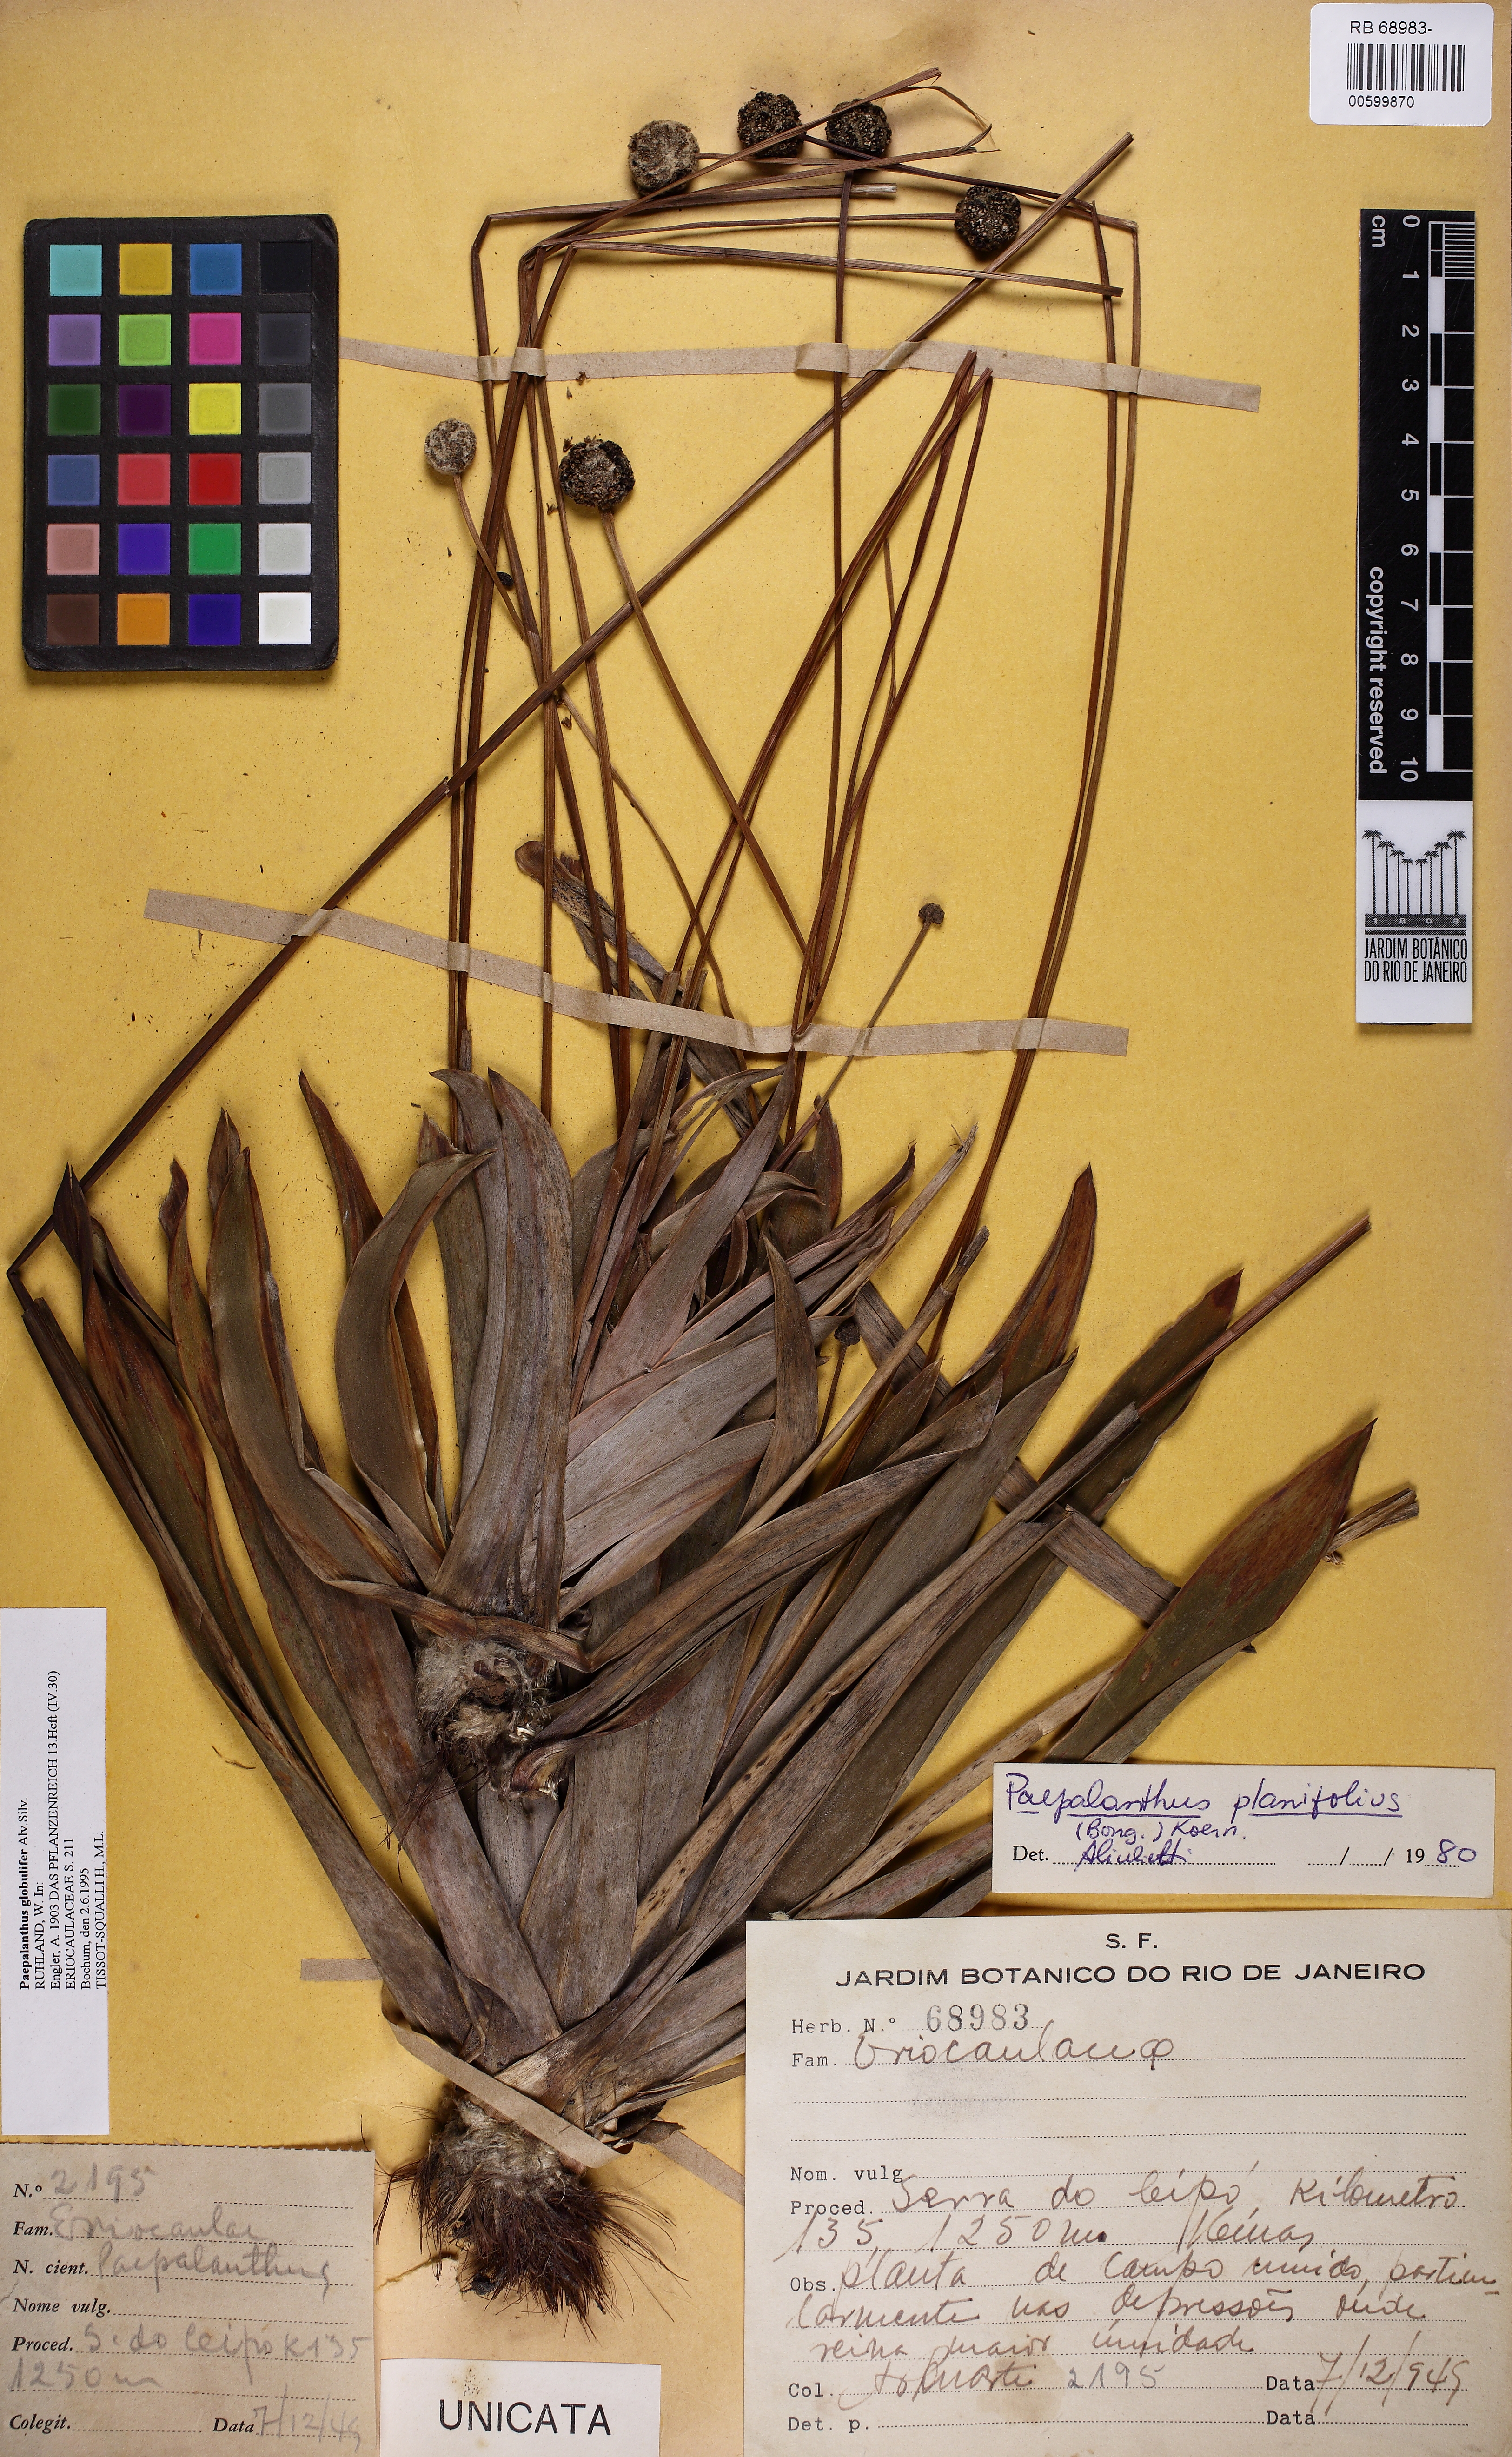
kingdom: Plantae
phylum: Tracheophyta
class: Liliopsida
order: Poales
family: Eriocaulaceae
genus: Paepalanthus
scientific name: Paepalanthus planifolius
